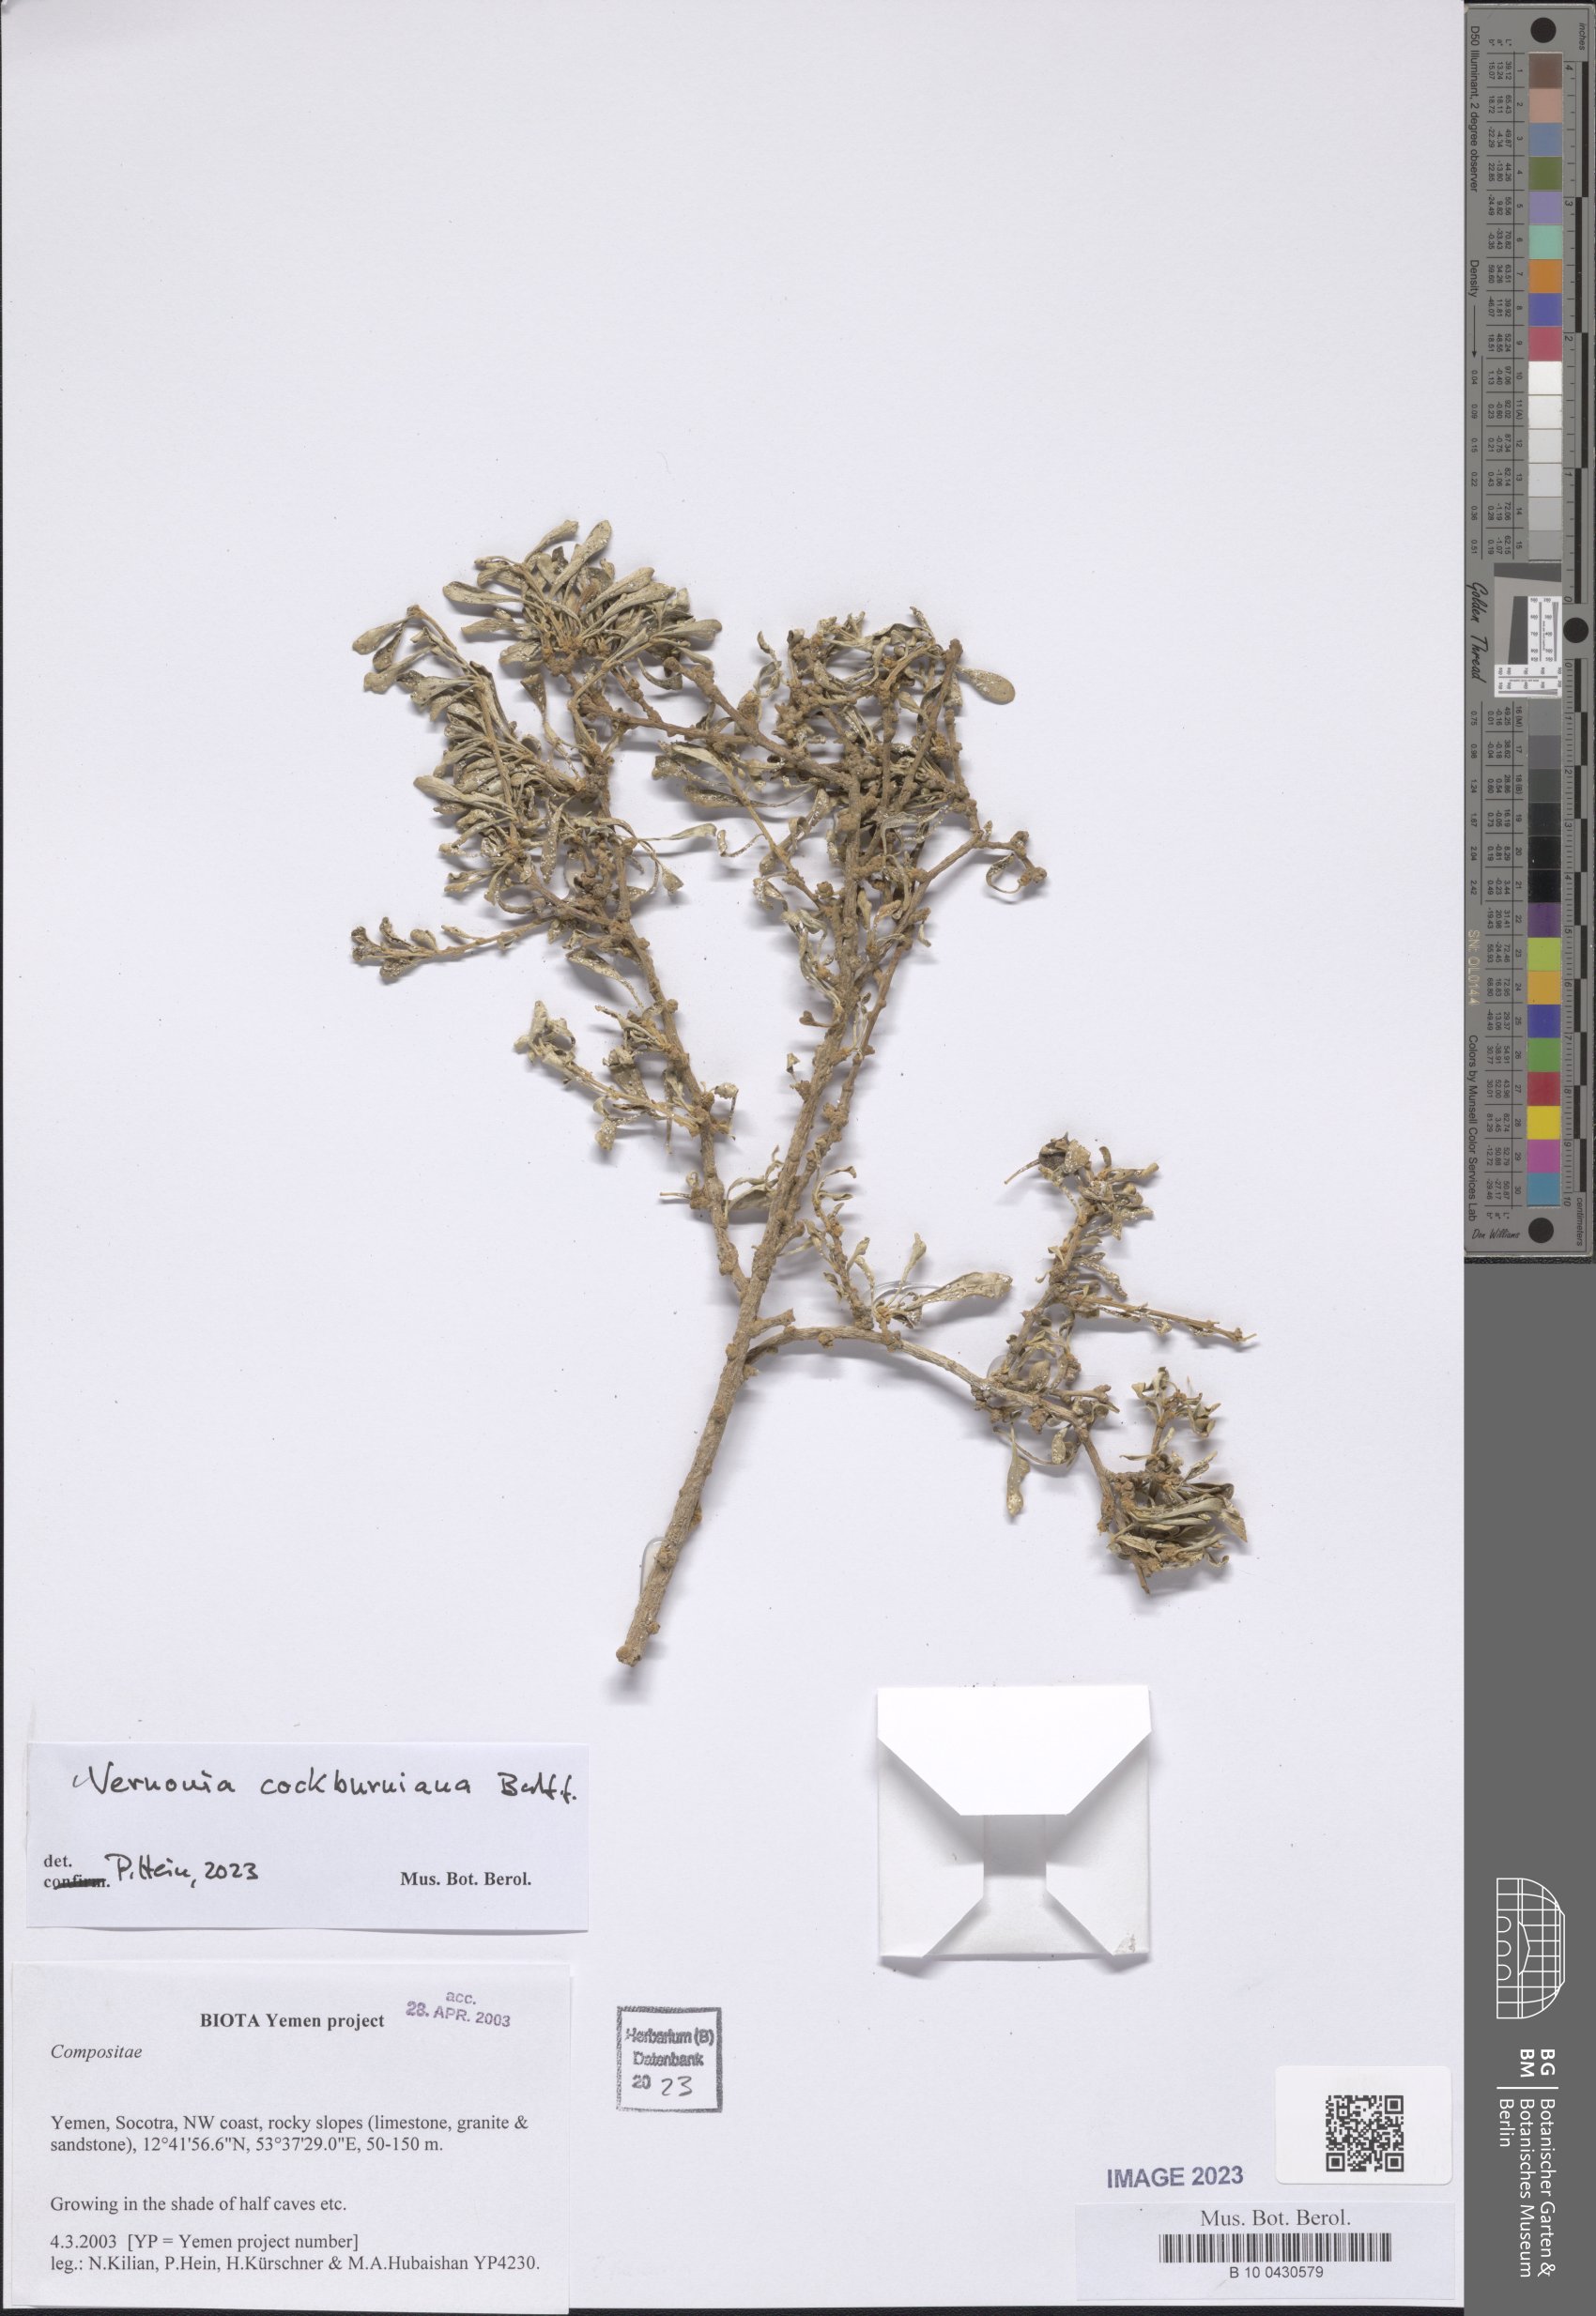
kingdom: Plantae
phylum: Tracheophyta
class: Magnoliopsida
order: Asterales
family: Asteraceae
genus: Vernonia
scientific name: Vernonia cockburniana
